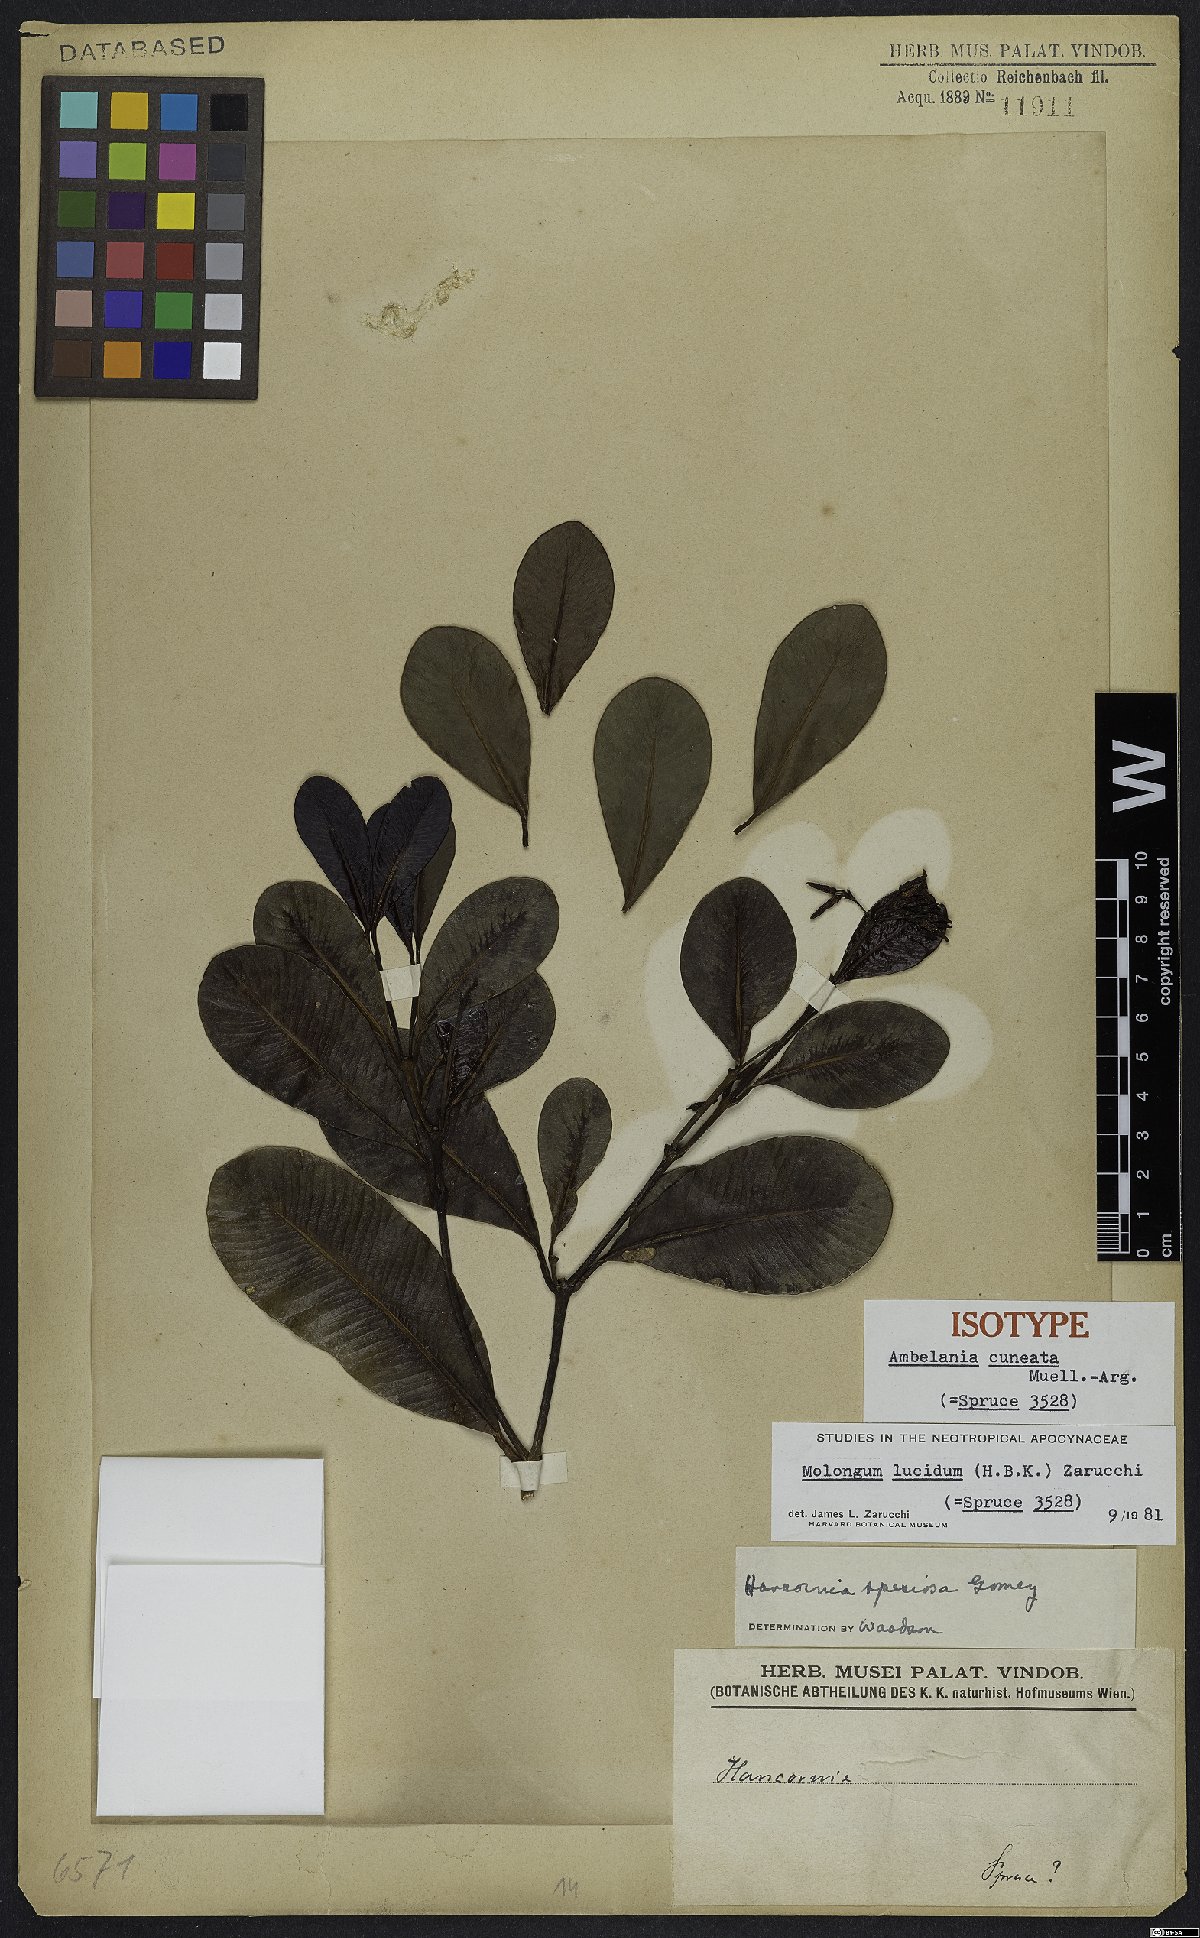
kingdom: Plantae
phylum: Tracheophyta
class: Magnoliopsida
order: Gentianales
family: Apocynaceae
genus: Molongum
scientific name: Molongum lucidum
